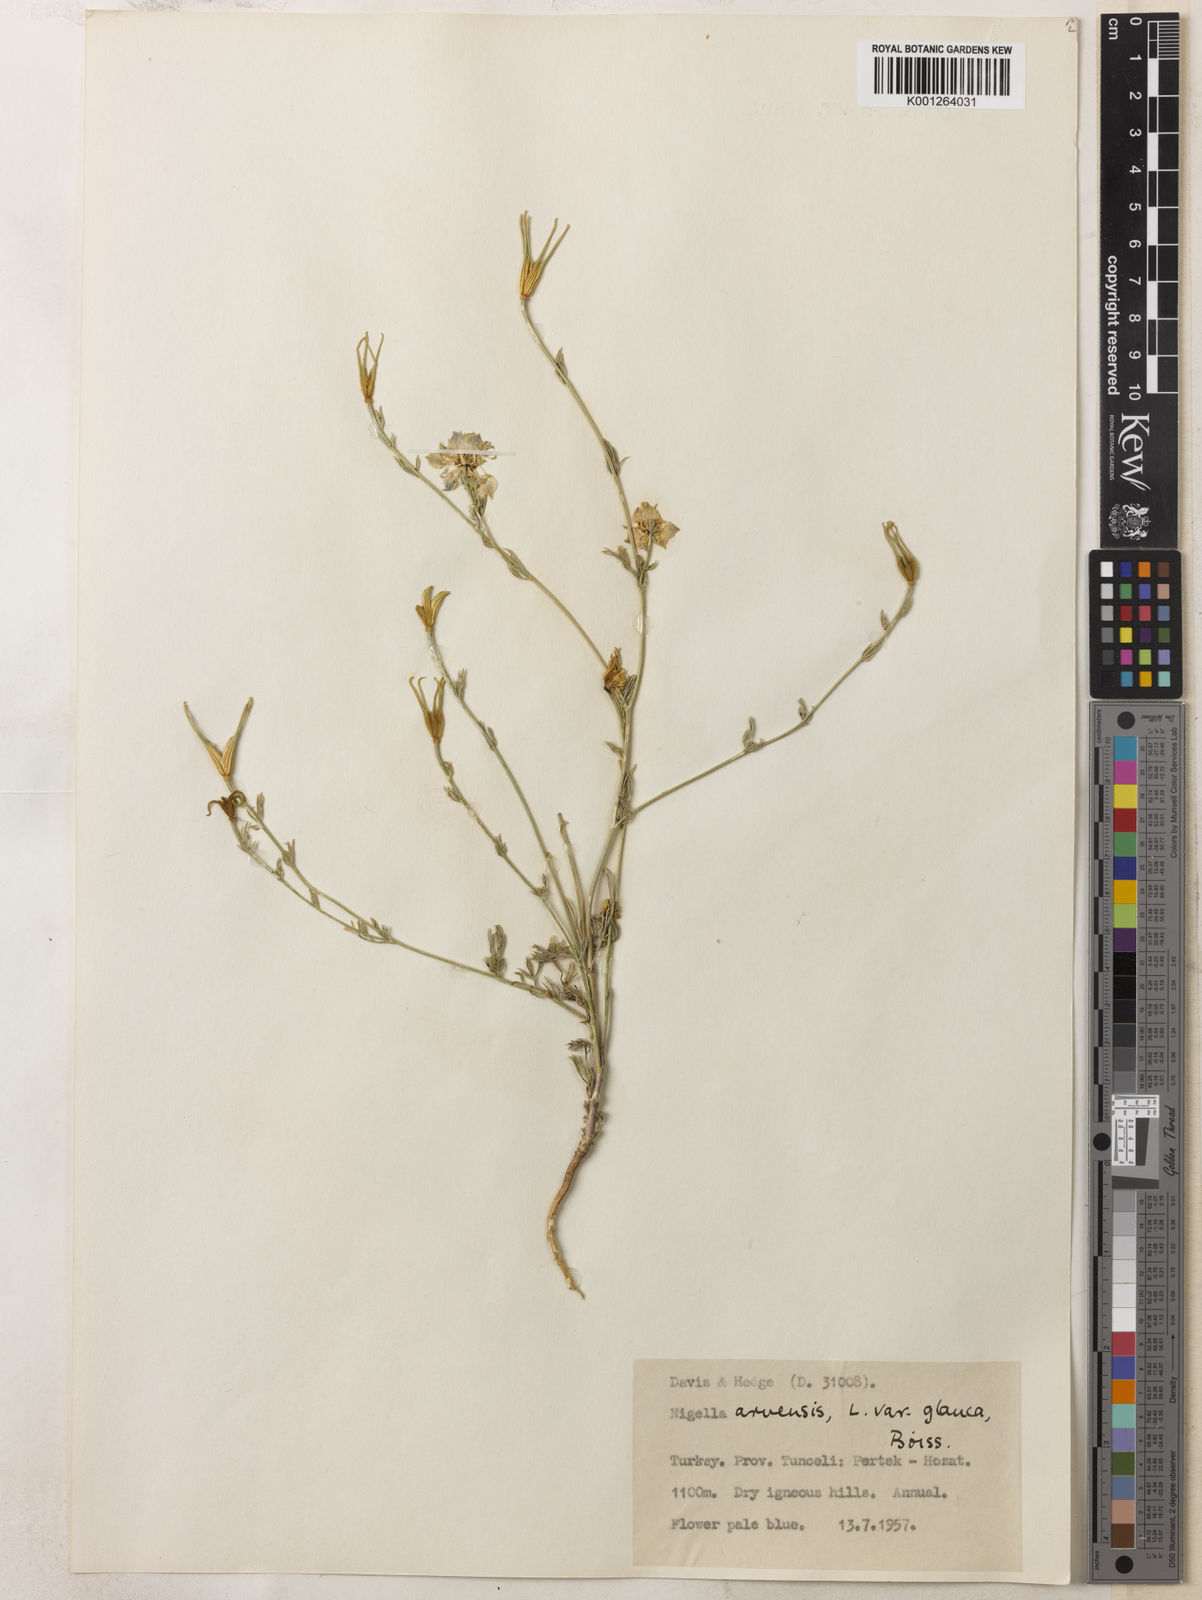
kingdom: Plantae
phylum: Tracheophyta
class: Magnoliopsida
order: Ranunculales
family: Ranunculaceae
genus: Nigella
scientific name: Nigella arvensis
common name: Wild fennel-flower
